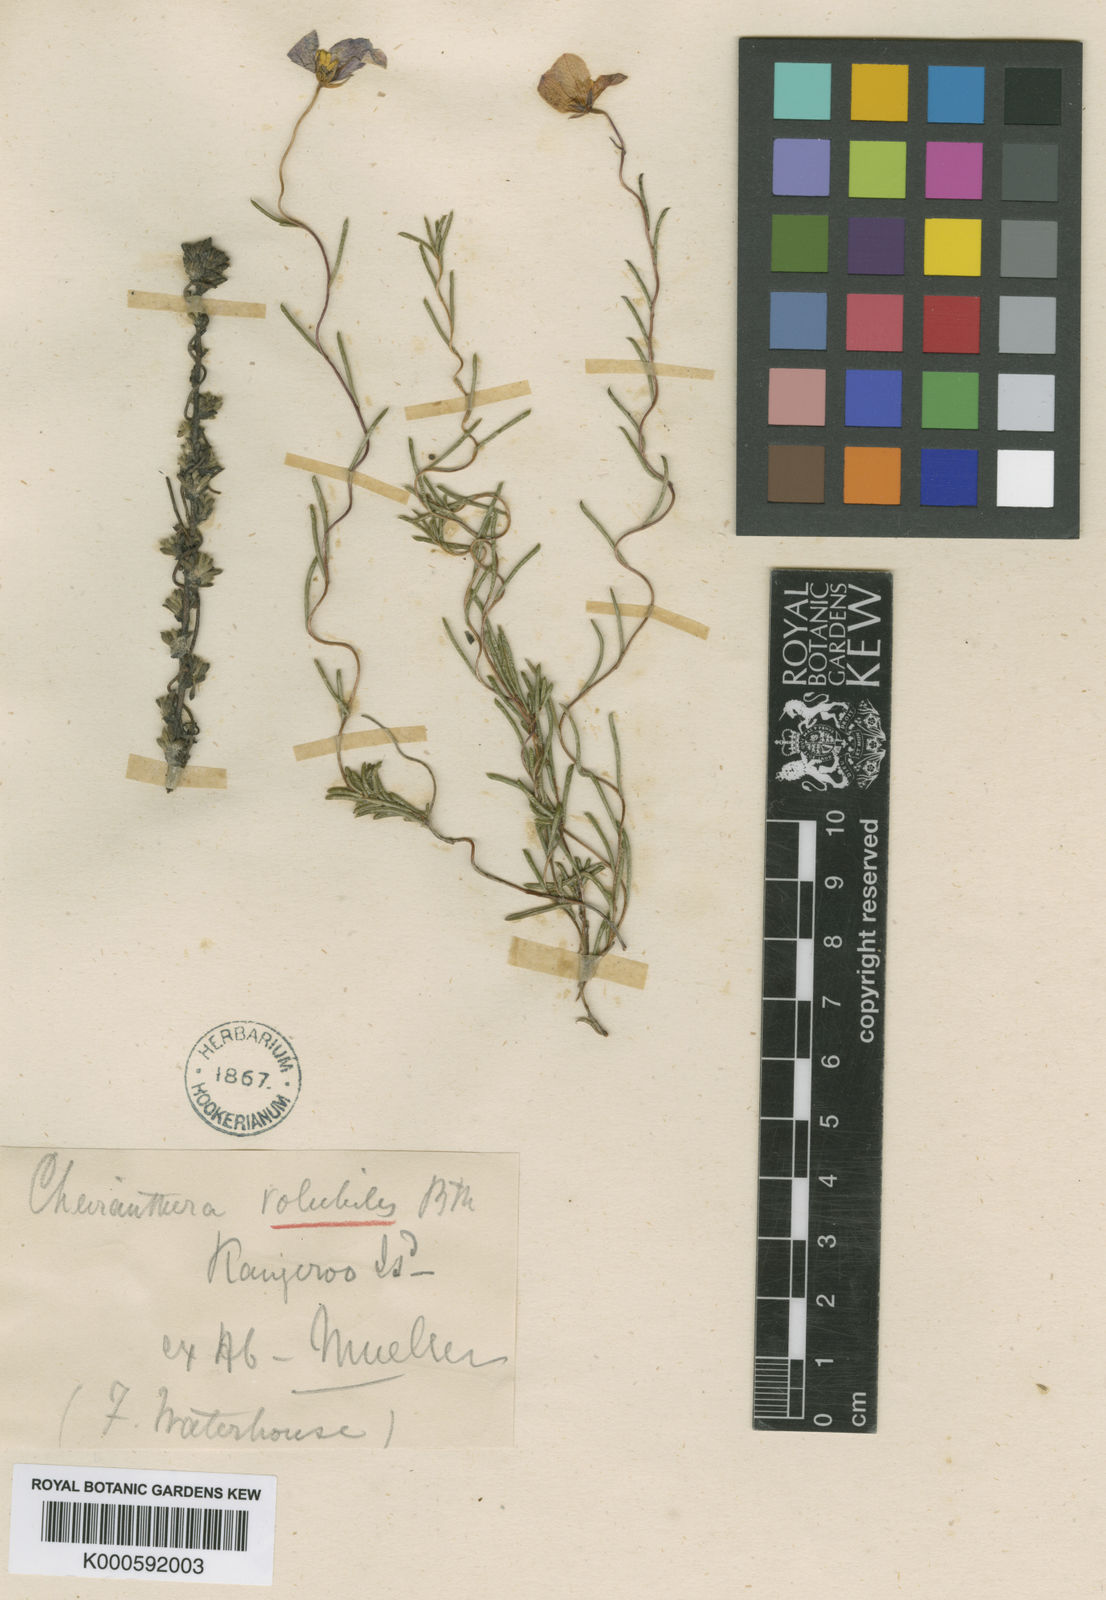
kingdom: Plantae
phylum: Tracheophyta
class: Magnoliopsida
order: Apiales
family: Pittosporaceae
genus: Cheiranthera
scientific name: Cheiranthera volubilis
